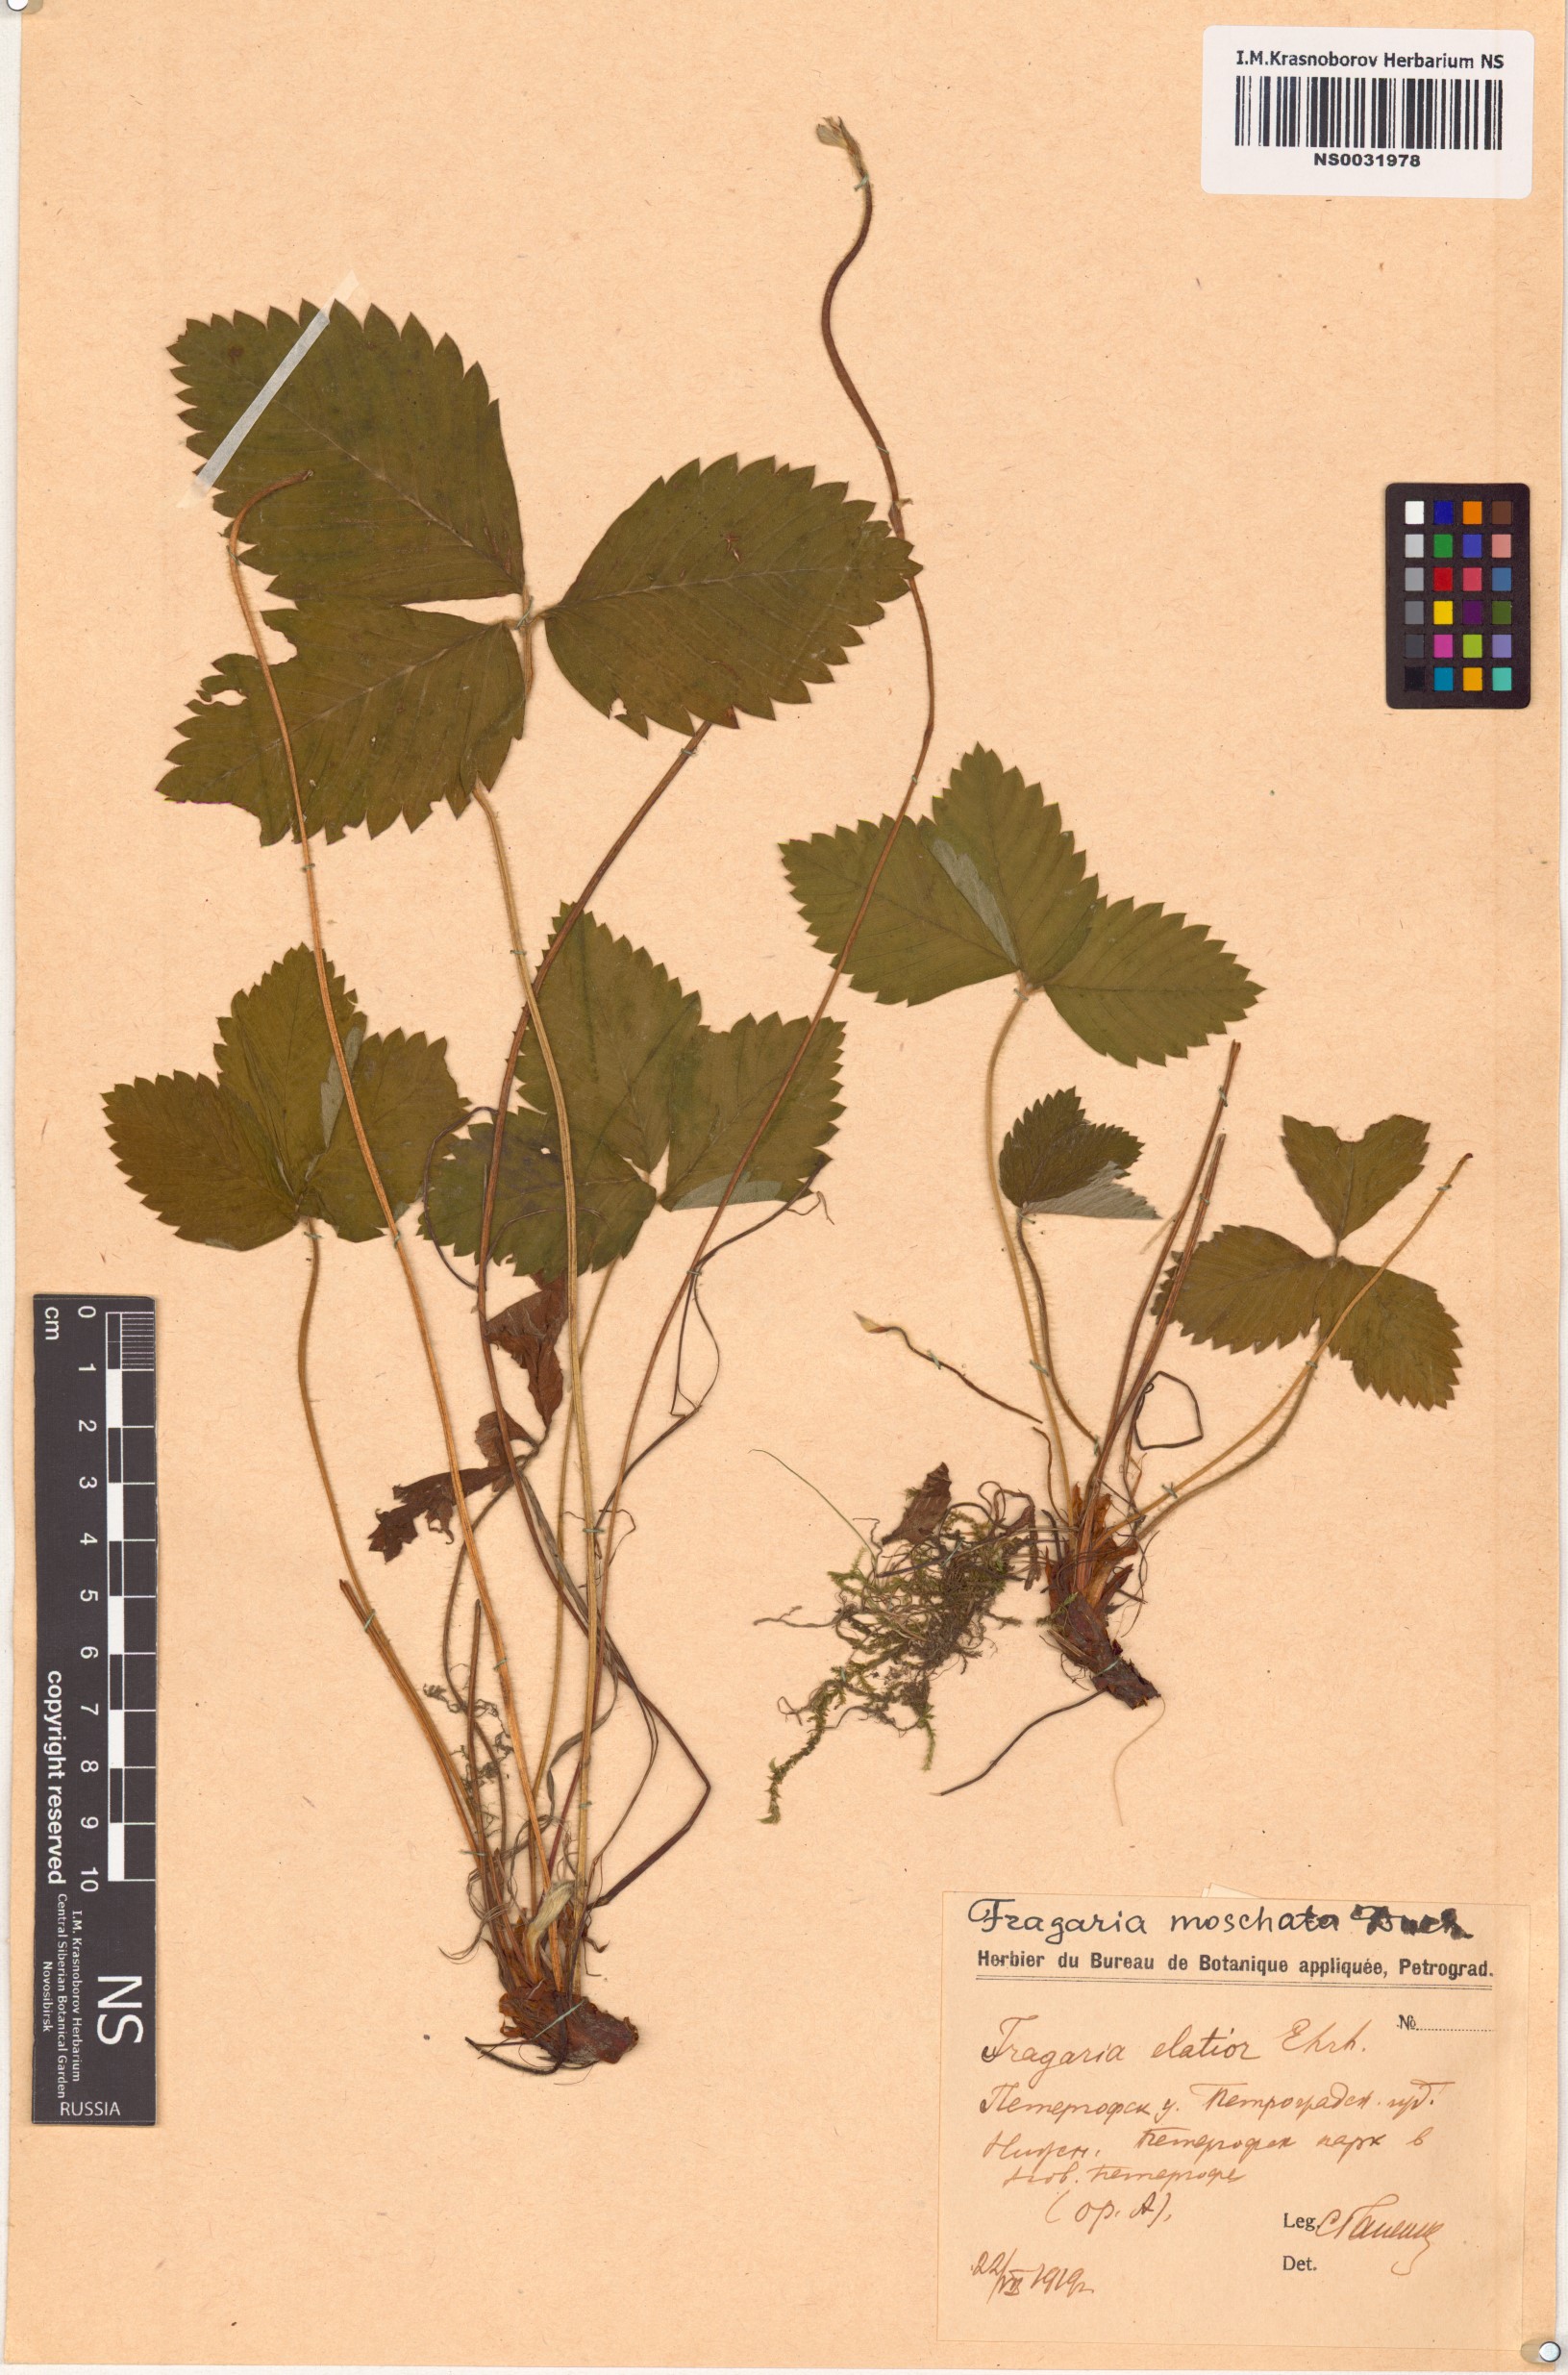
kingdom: Plantae
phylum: Tracheophyta
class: Magnoliopsida
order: Rosales
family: Rosaceae
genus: Fragaria
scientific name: Fragaria moschata
